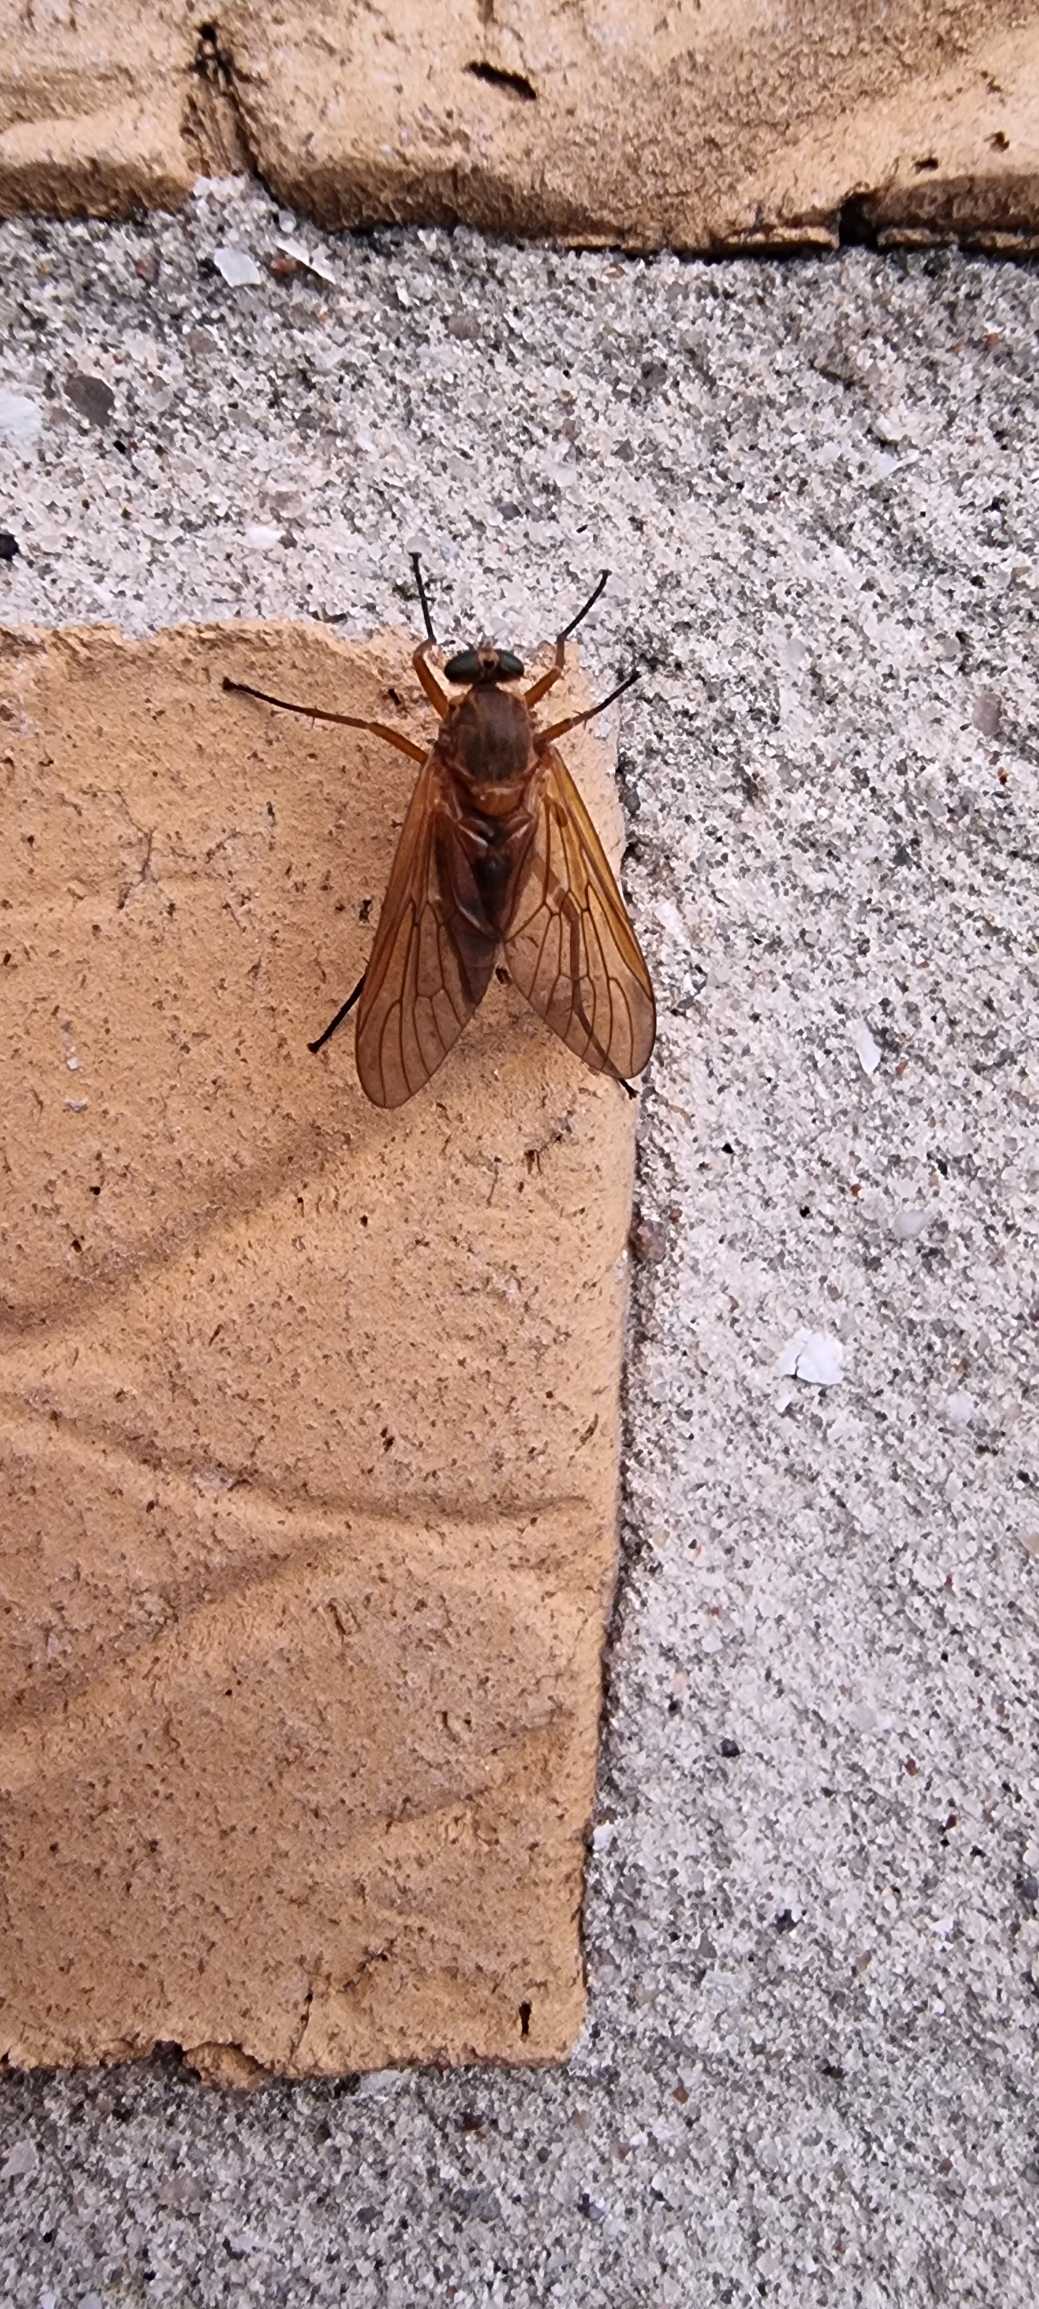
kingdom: Animalia
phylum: Arthropoda
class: Insecta
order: Diptera
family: Rhagionidae
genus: Rhagio
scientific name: Rhagio tringaria
